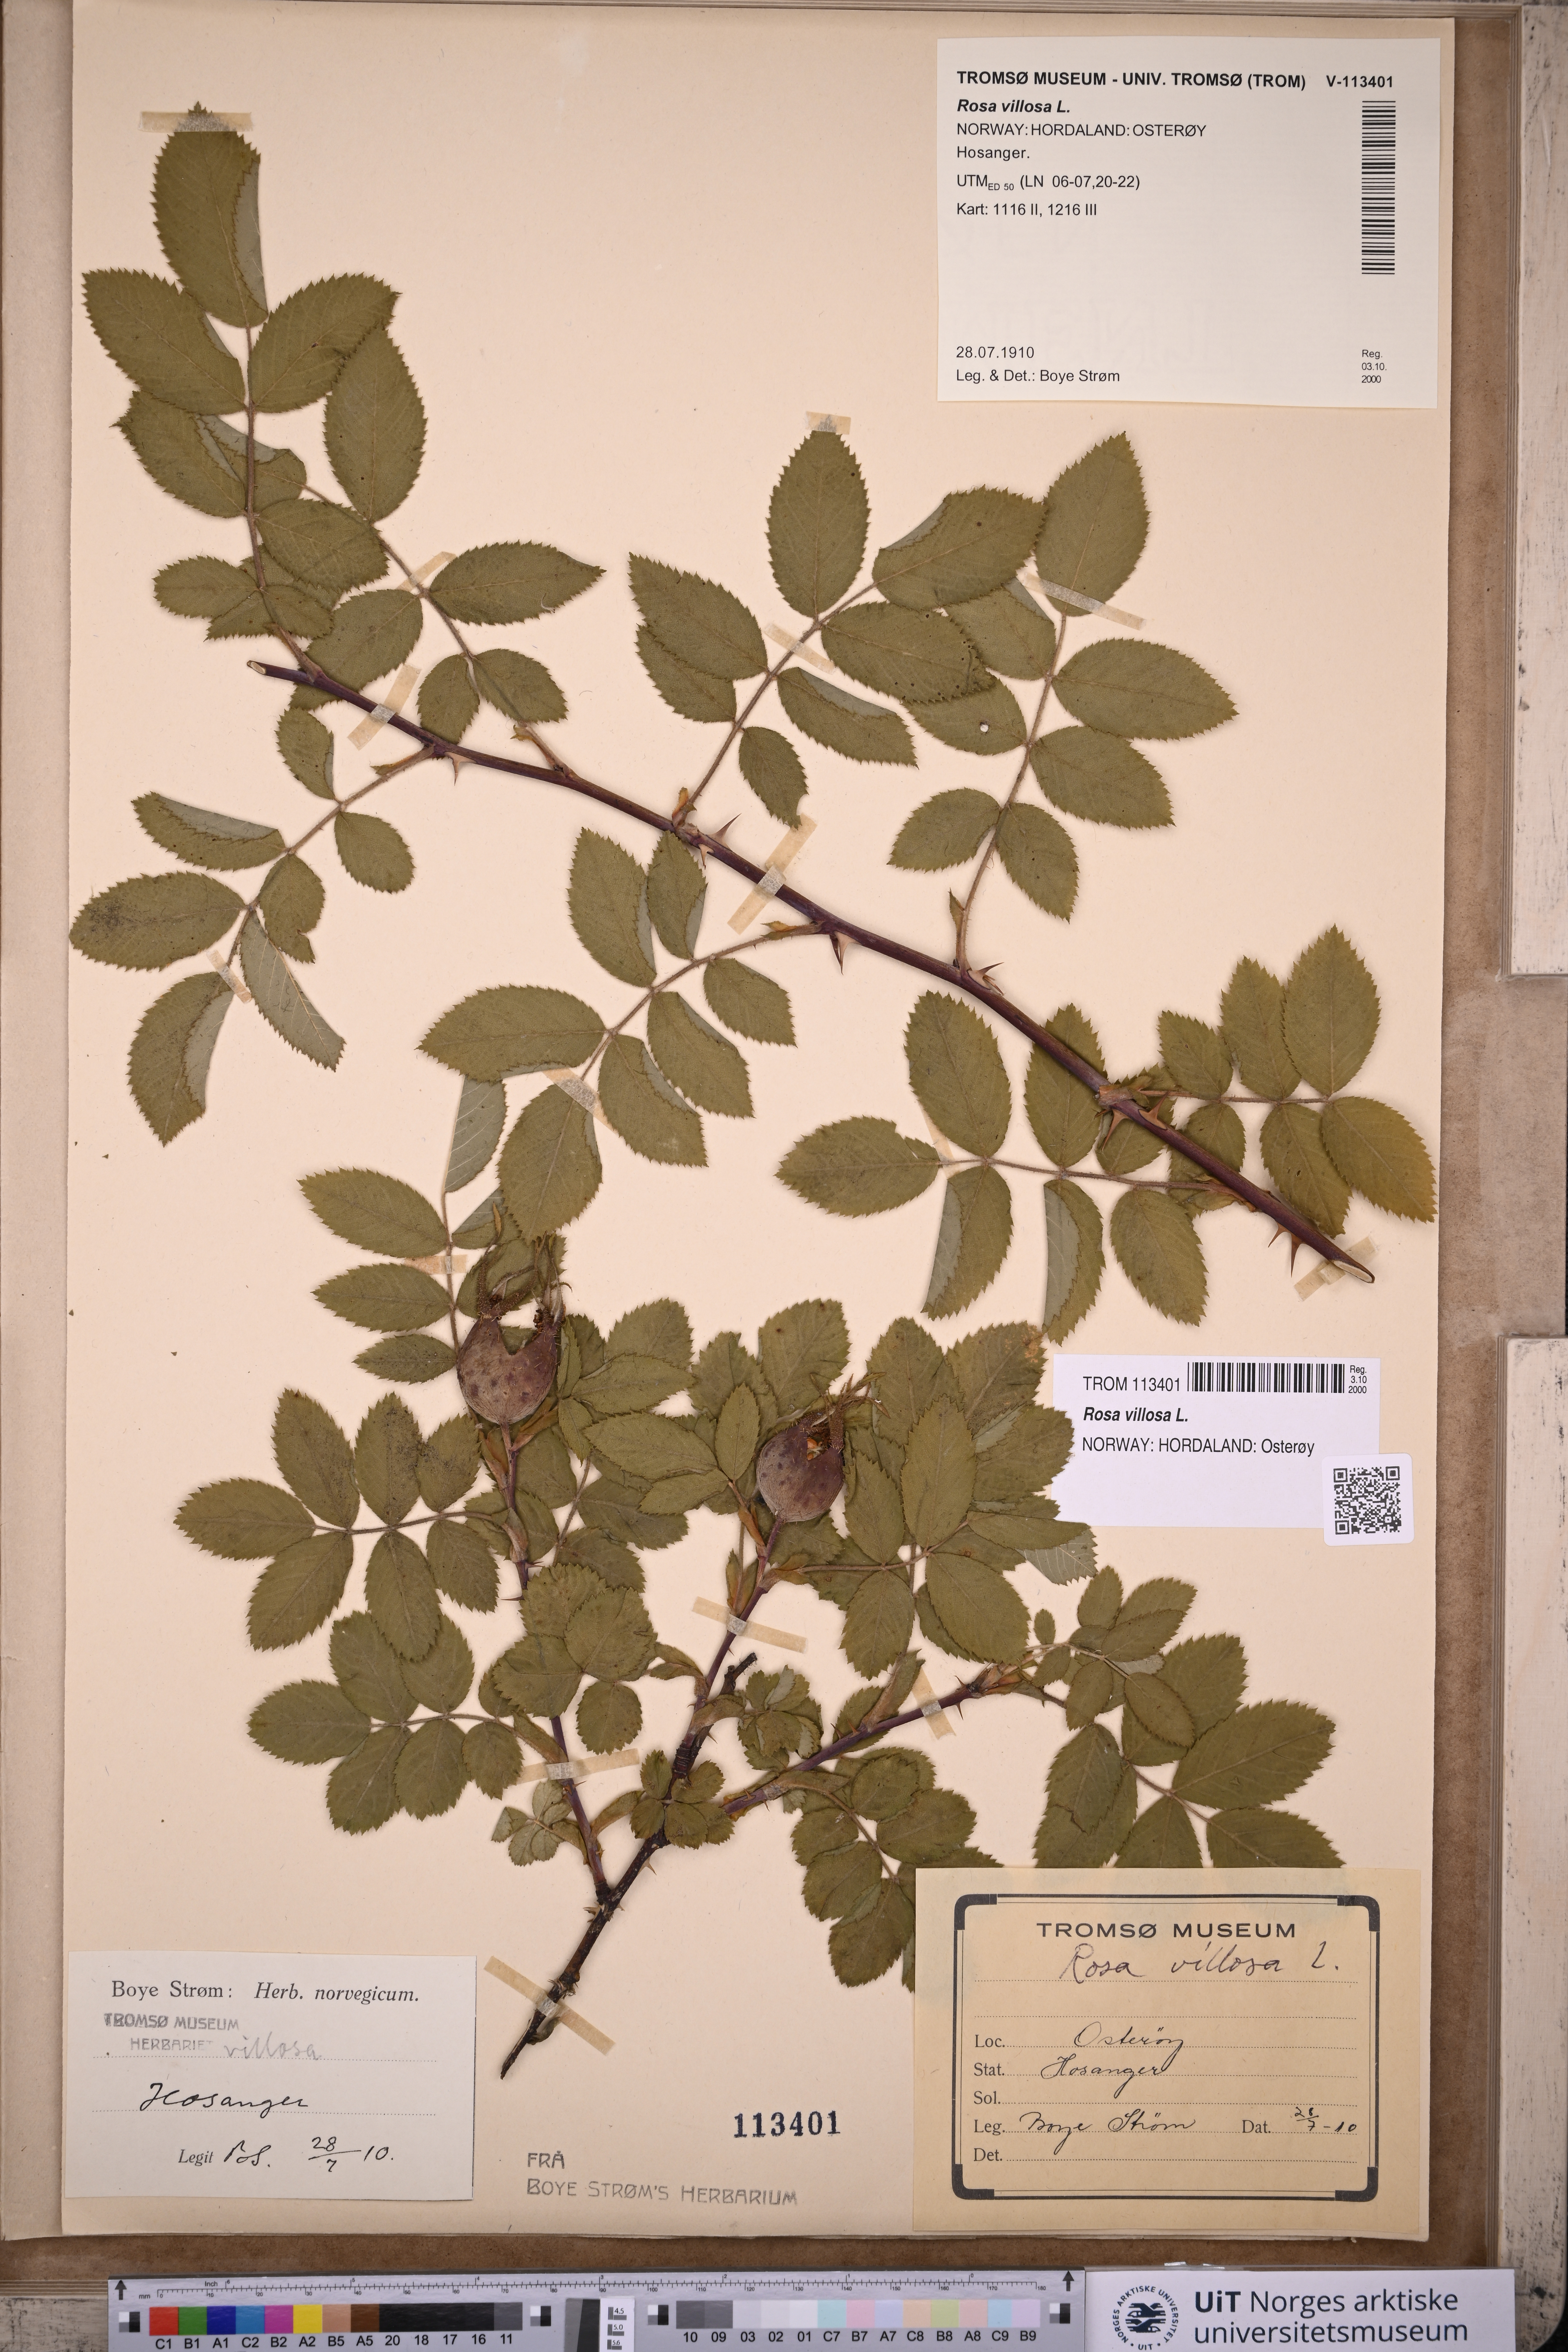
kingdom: Plantae
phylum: Tracheophyta
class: Magnoliopsida
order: Rosales
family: Rosaceae
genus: Rosa
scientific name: Rosa villosa
